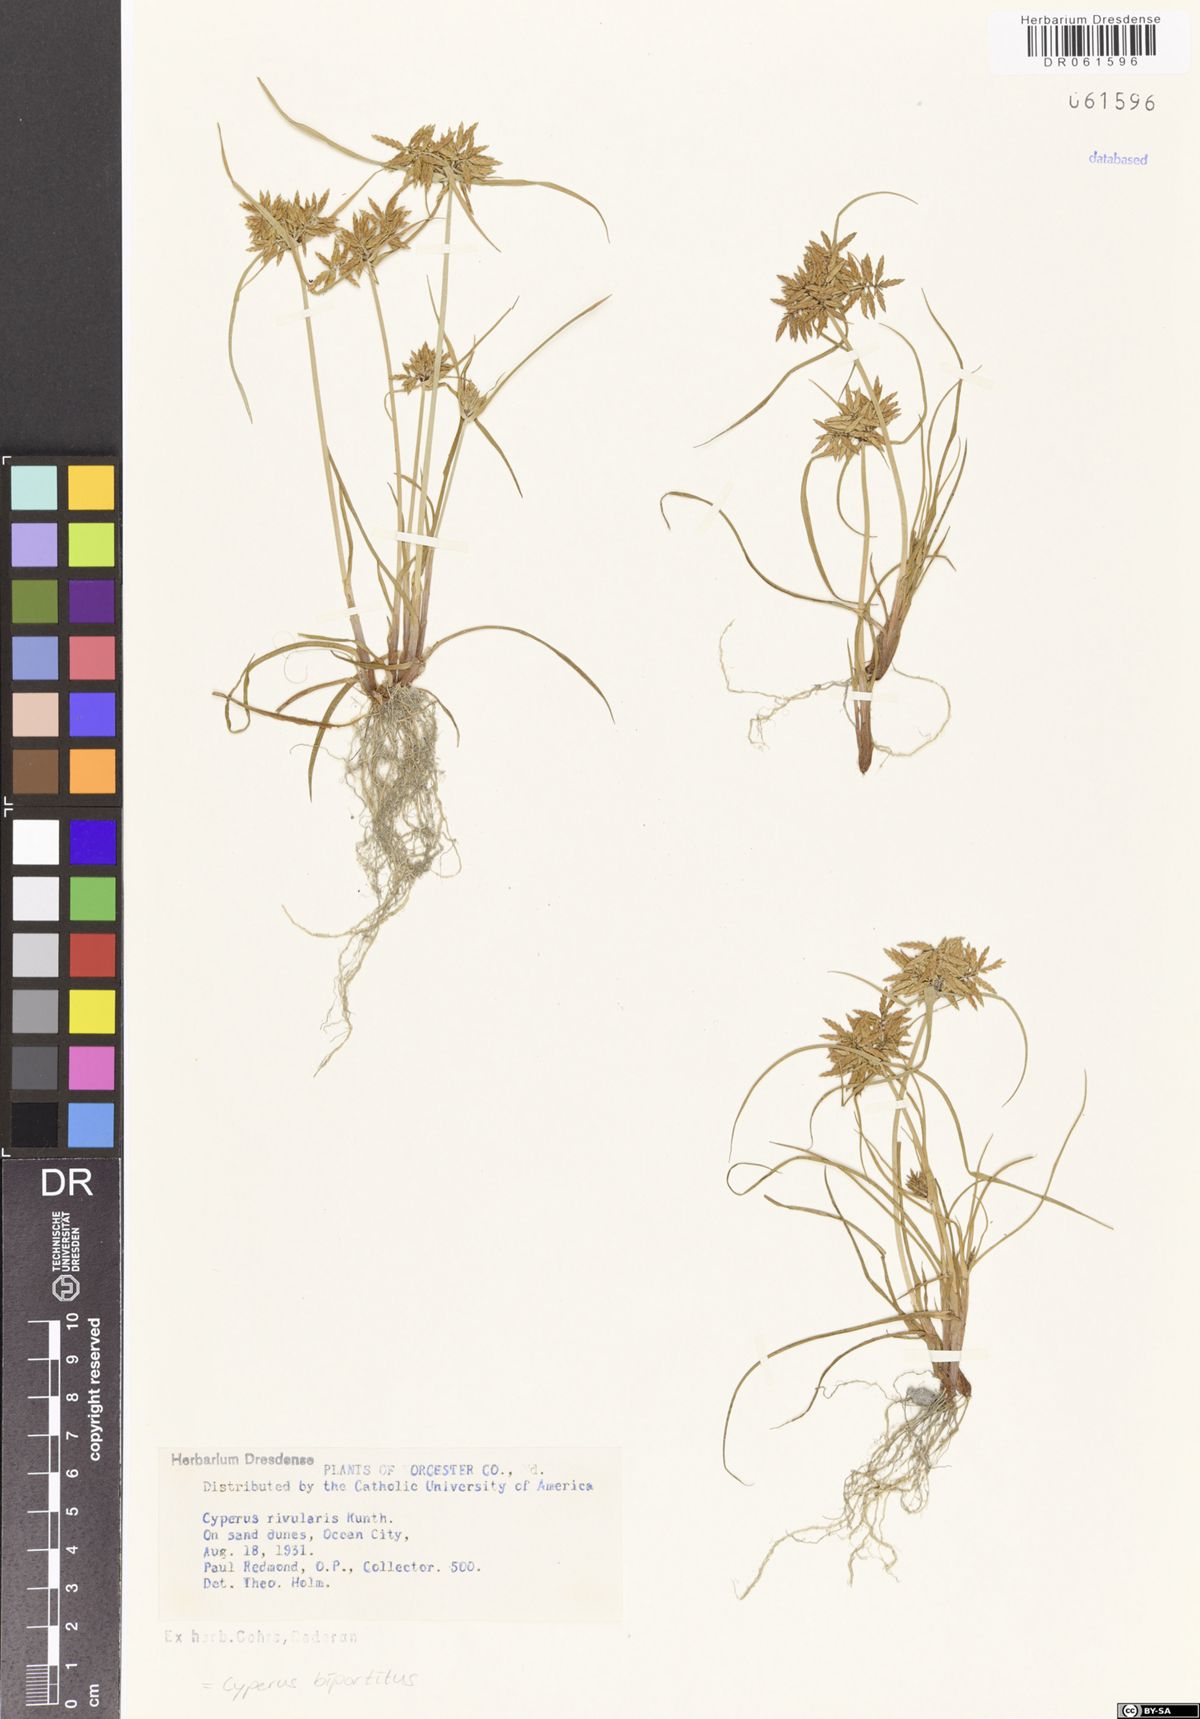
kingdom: Plantae
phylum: Tracheophyta
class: Liliopsida
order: Poales
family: Cyperaceae
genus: Cyperus
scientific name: Cyperus bipartitus
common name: Brook flatsedge
